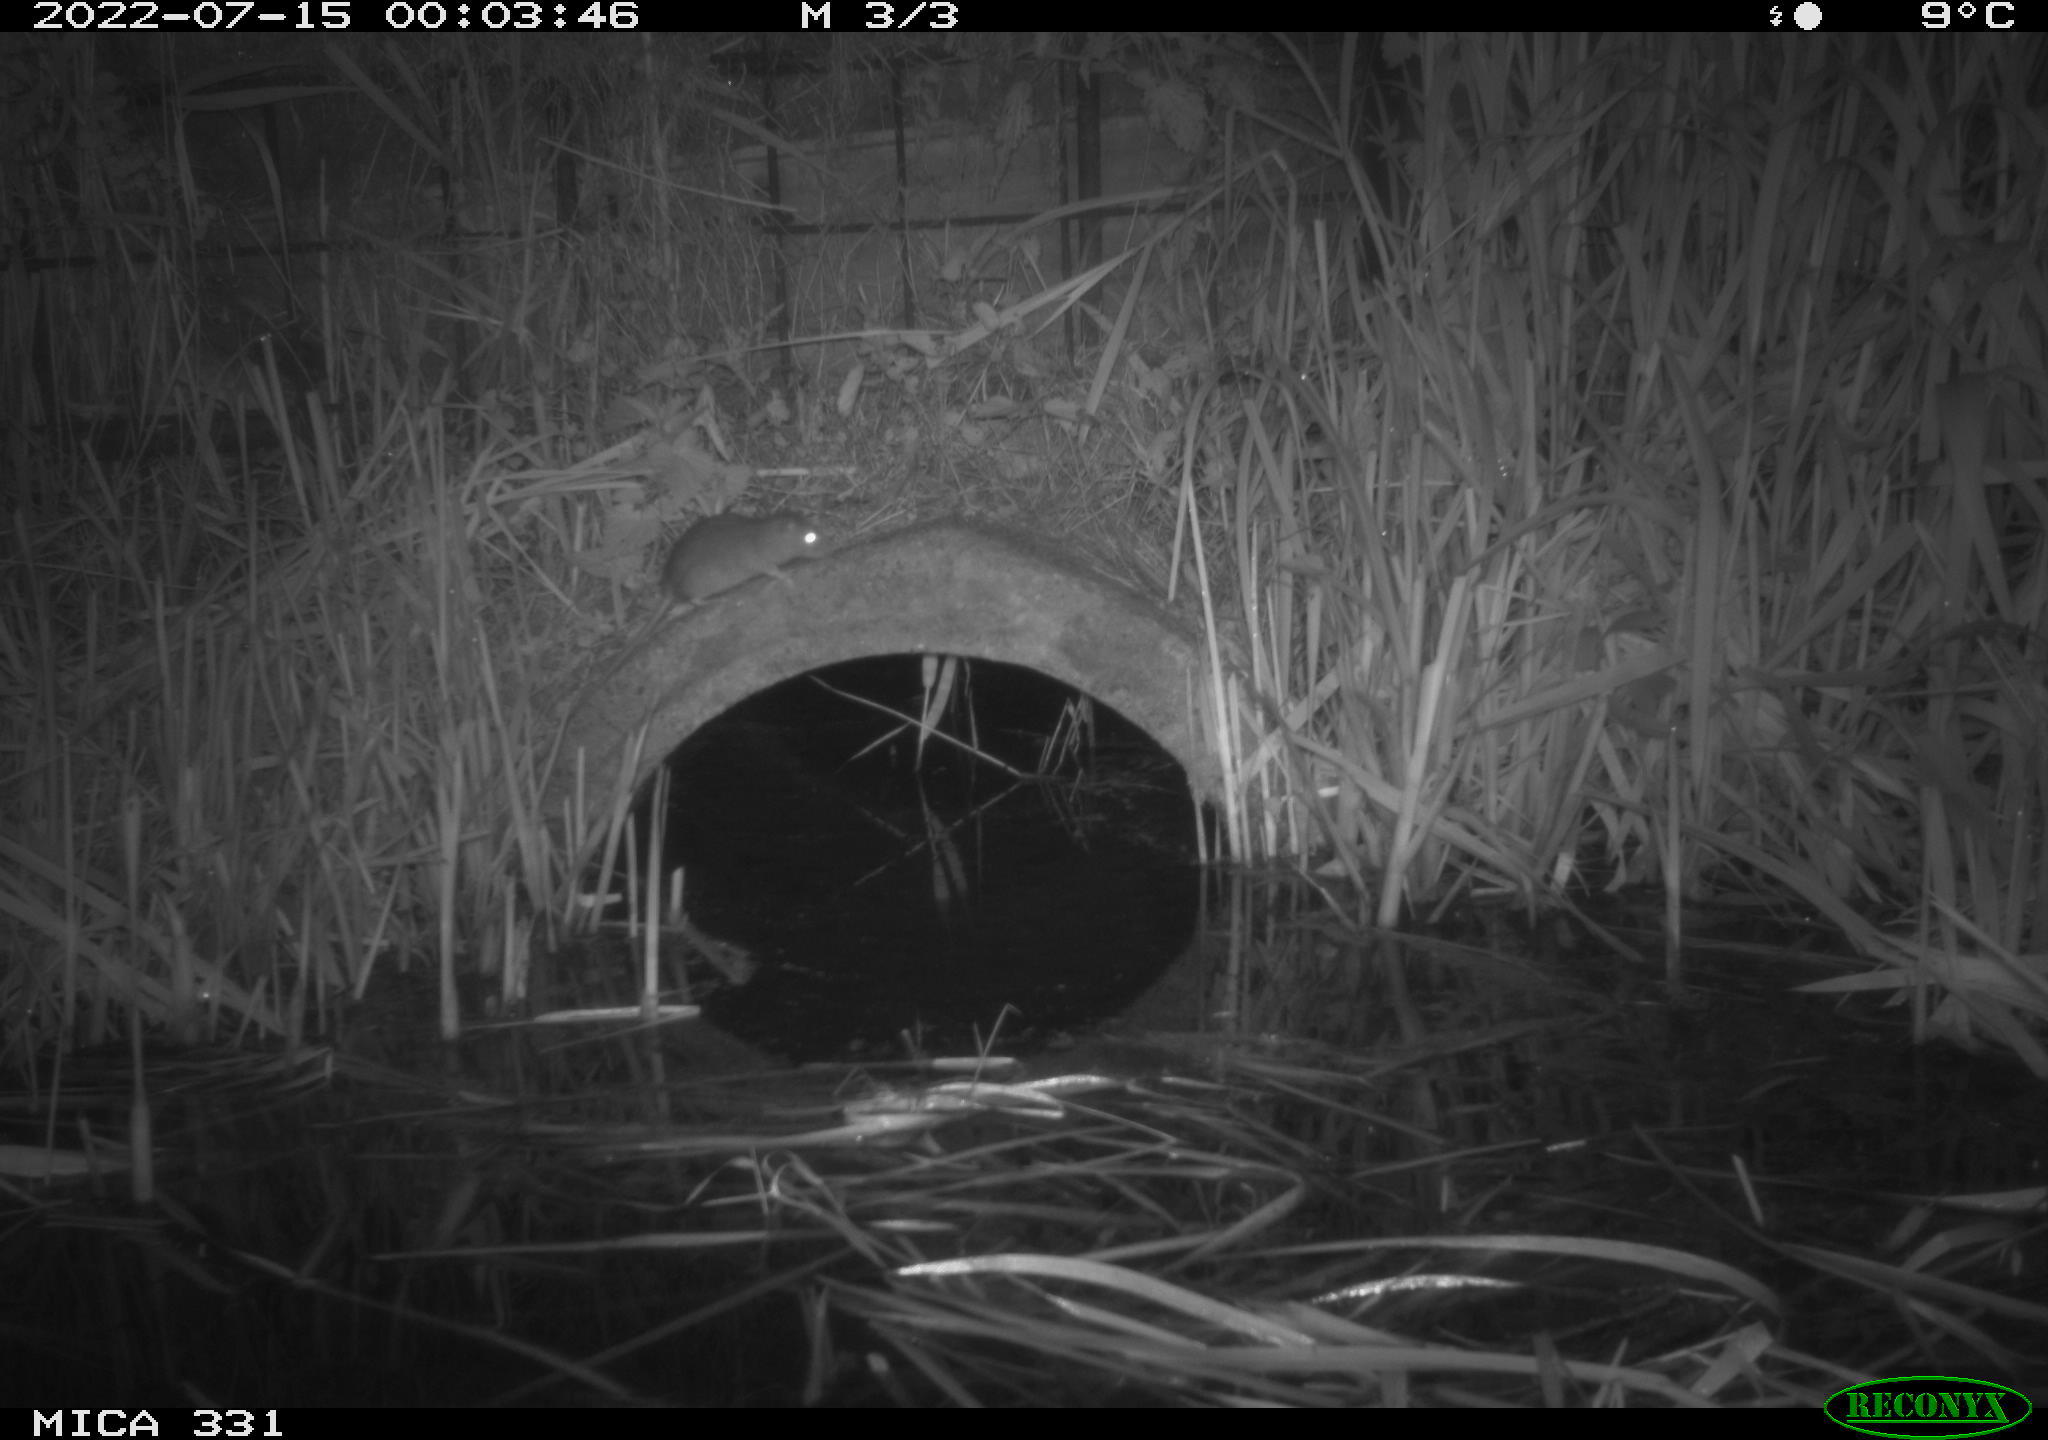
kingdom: Animalia
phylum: Chordata
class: Mammalia
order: Rodentia
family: Muridae
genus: Rattus
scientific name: Rattus norvegicus
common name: Brown rat
